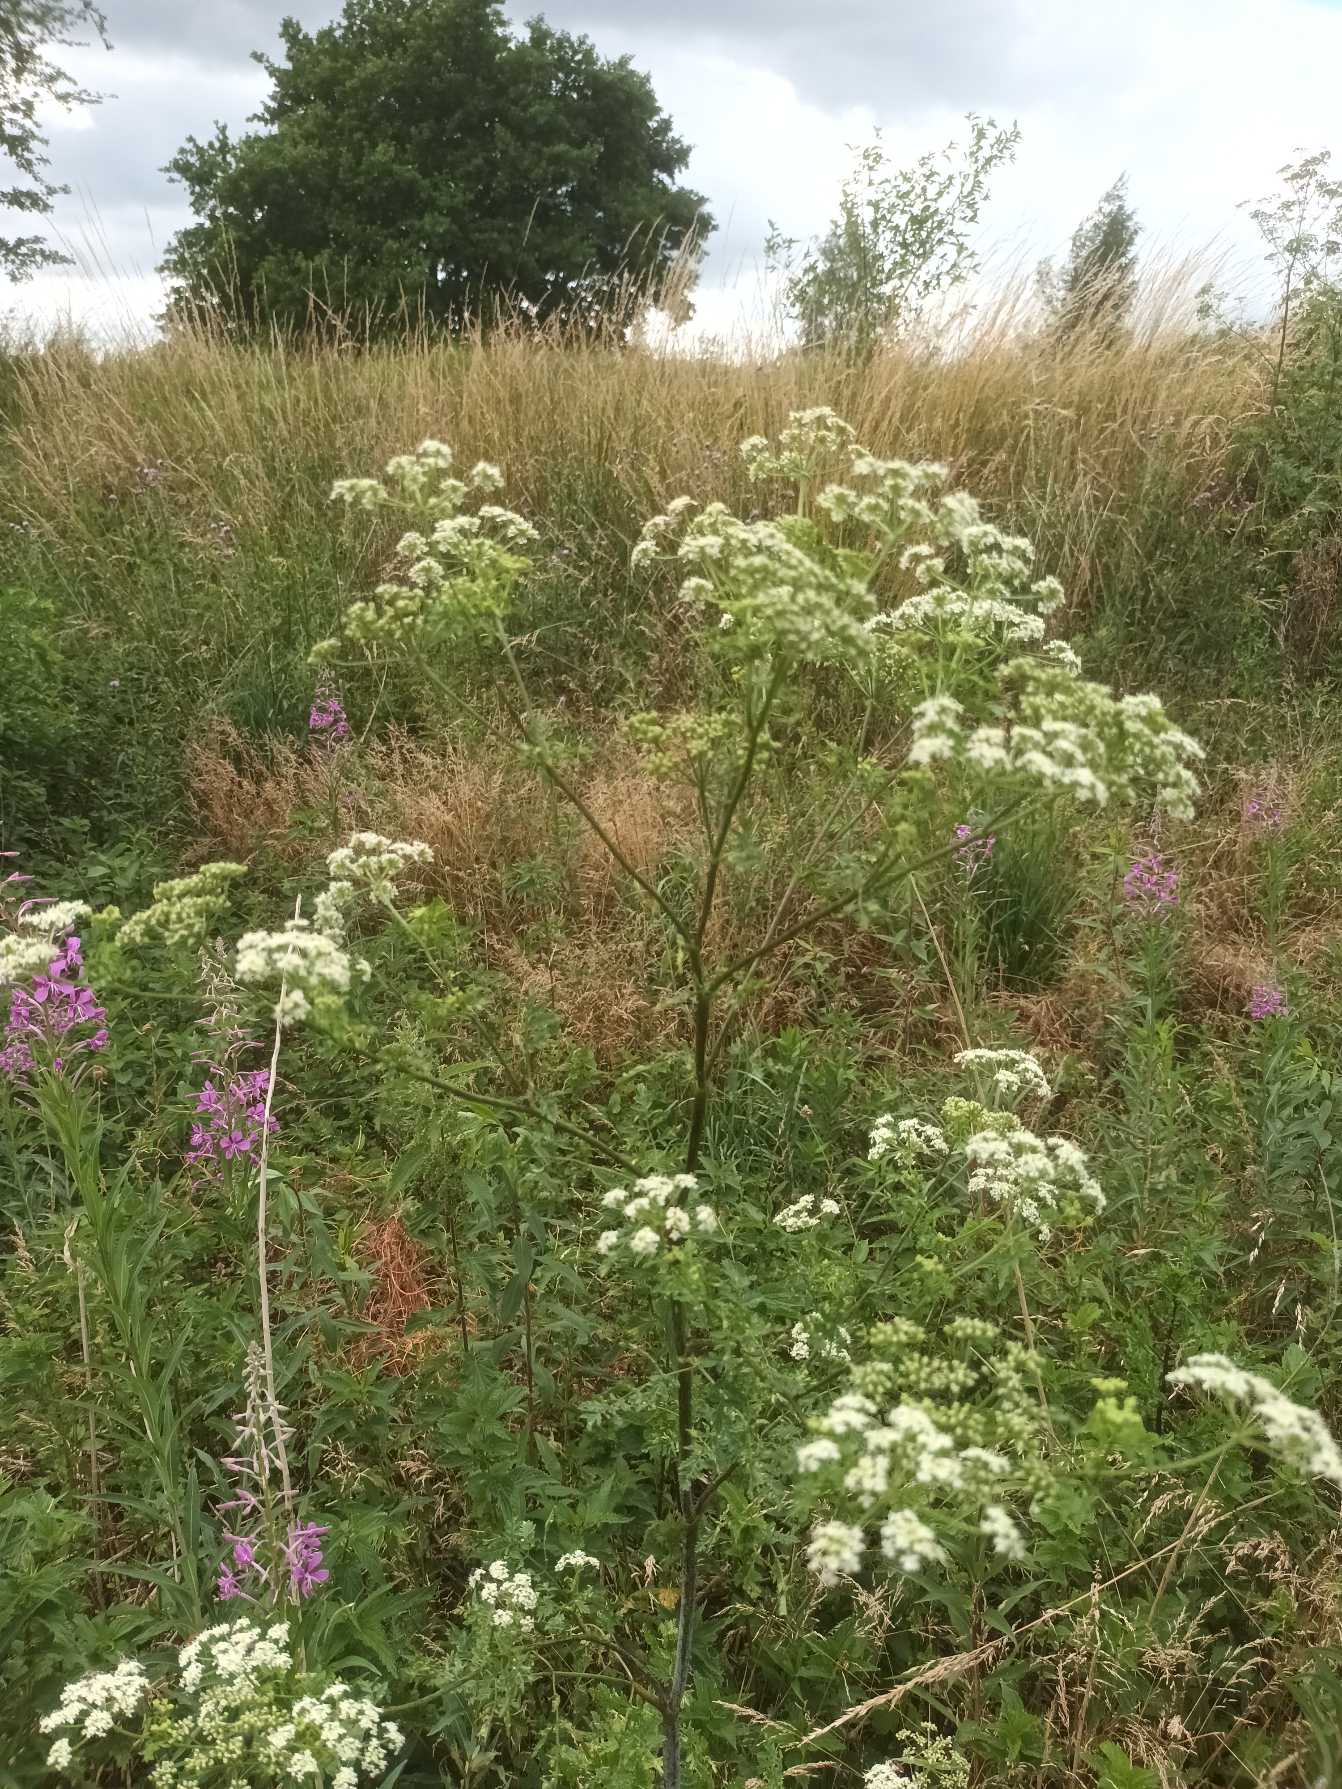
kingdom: Plantae
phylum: Tracheophyta
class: Magnoliopsida
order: Apiales
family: Apiaceae
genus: Conium
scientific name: Conium maculatum
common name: Skarntyde
